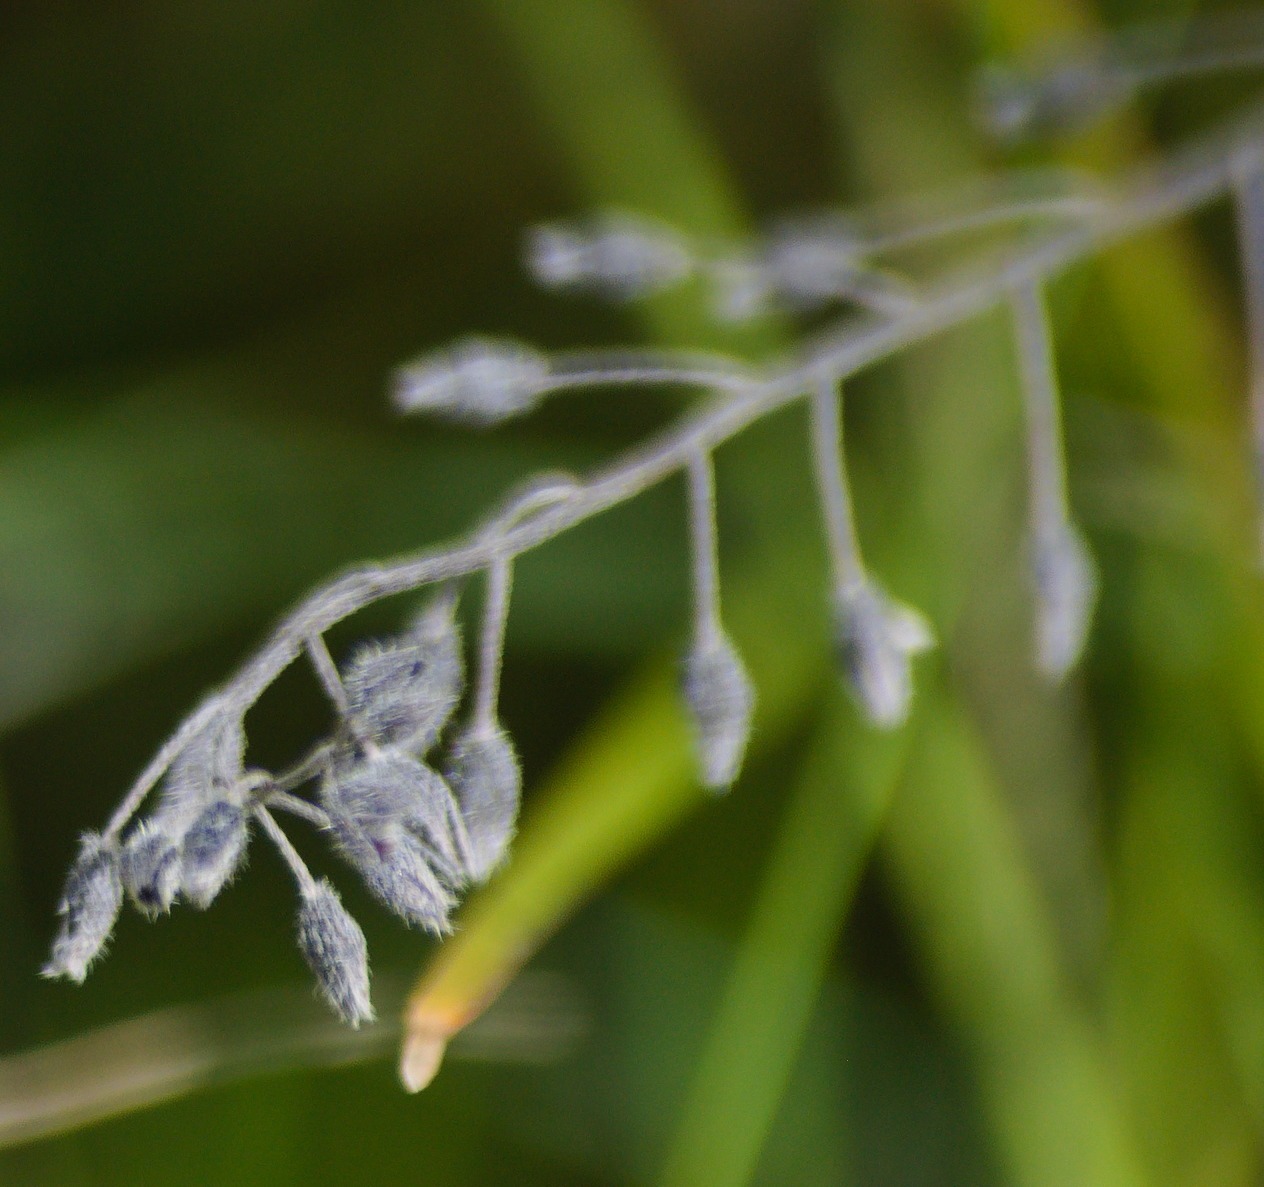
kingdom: Plantae
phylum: Tracheophyta
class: Magnoliopsida
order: Boraginales
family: Boraginaceae
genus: Myosotis
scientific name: Myosotis arvensis
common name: Mark-forglemmigej
